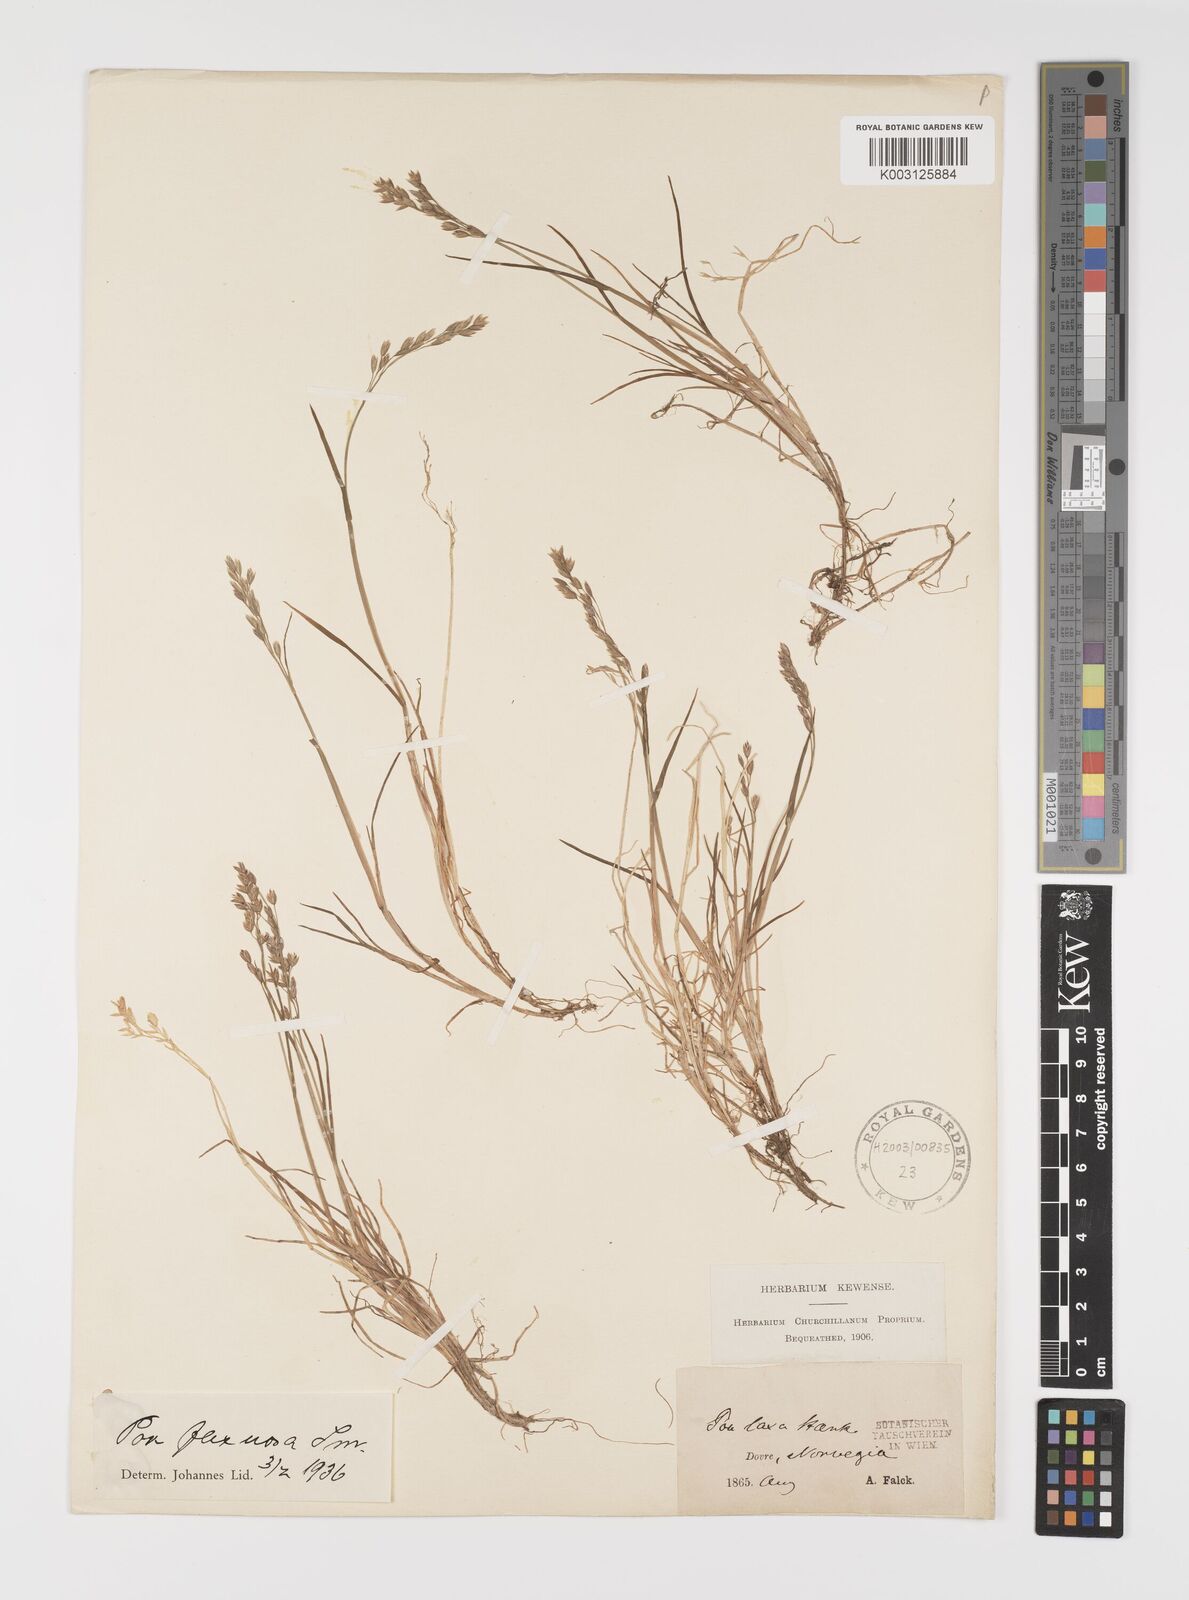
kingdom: Plantae
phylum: Tracheophyta
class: Liliopsida
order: Poales
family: Poaceae
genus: Eragrostis
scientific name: Eragrostis cilianensis
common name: Stinkgrass
